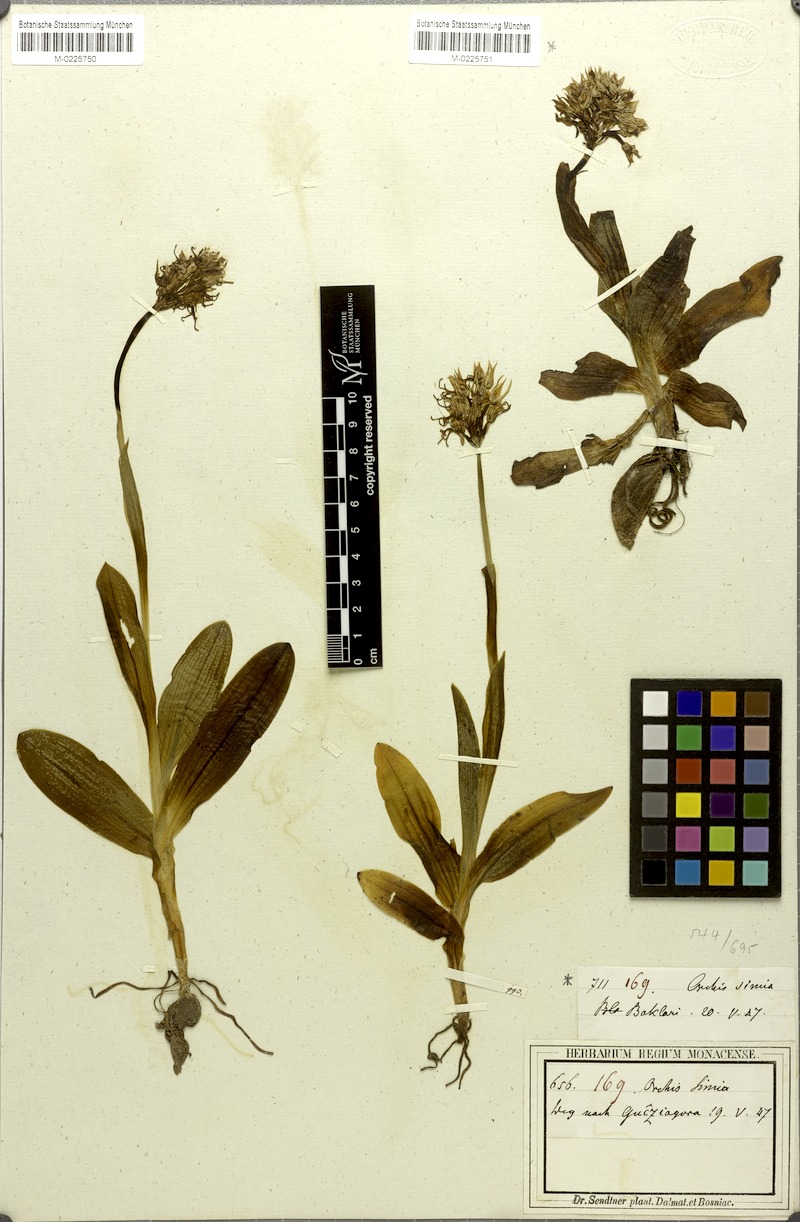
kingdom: Plantae
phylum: Tracheophyta
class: Liliopsida
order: Asparagales
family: Orchidaceae
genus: Orchis
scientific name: Orchis simia
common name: Monkey orchid
